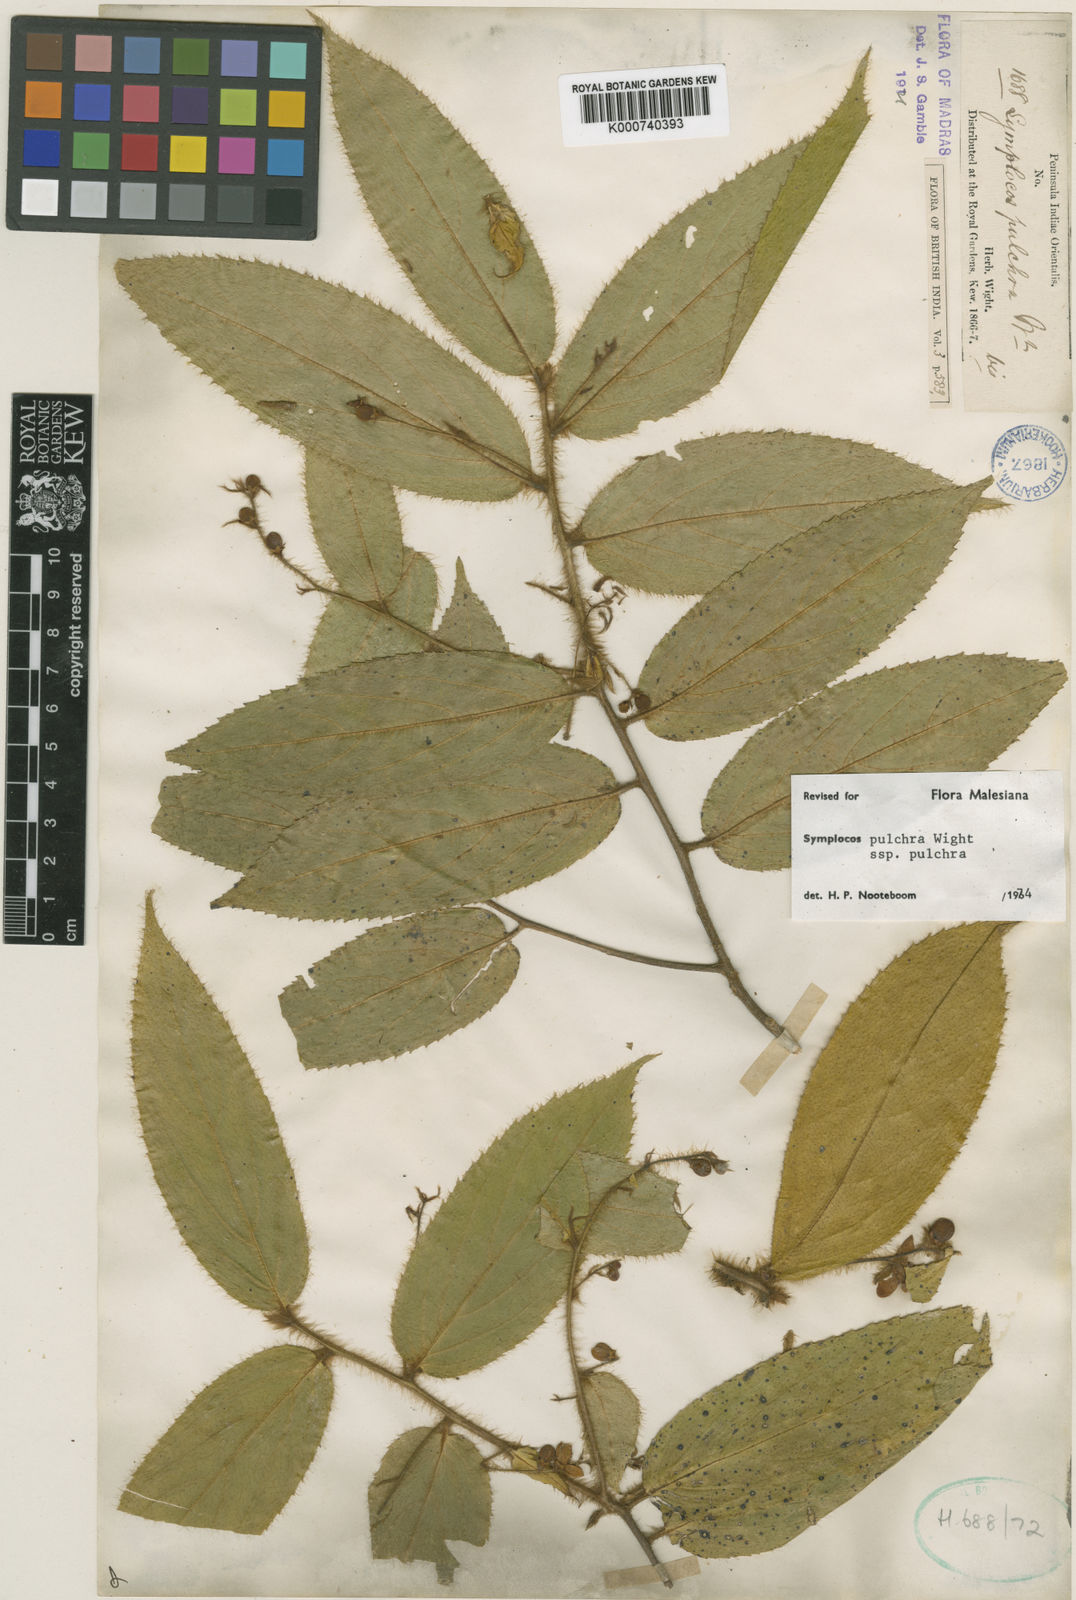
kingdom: Plantae
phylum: Tracheophyta
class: Magnoliopsida
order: Ericales
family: Symplocaceae
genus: Symplocos
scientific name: Symplocos pulchra
